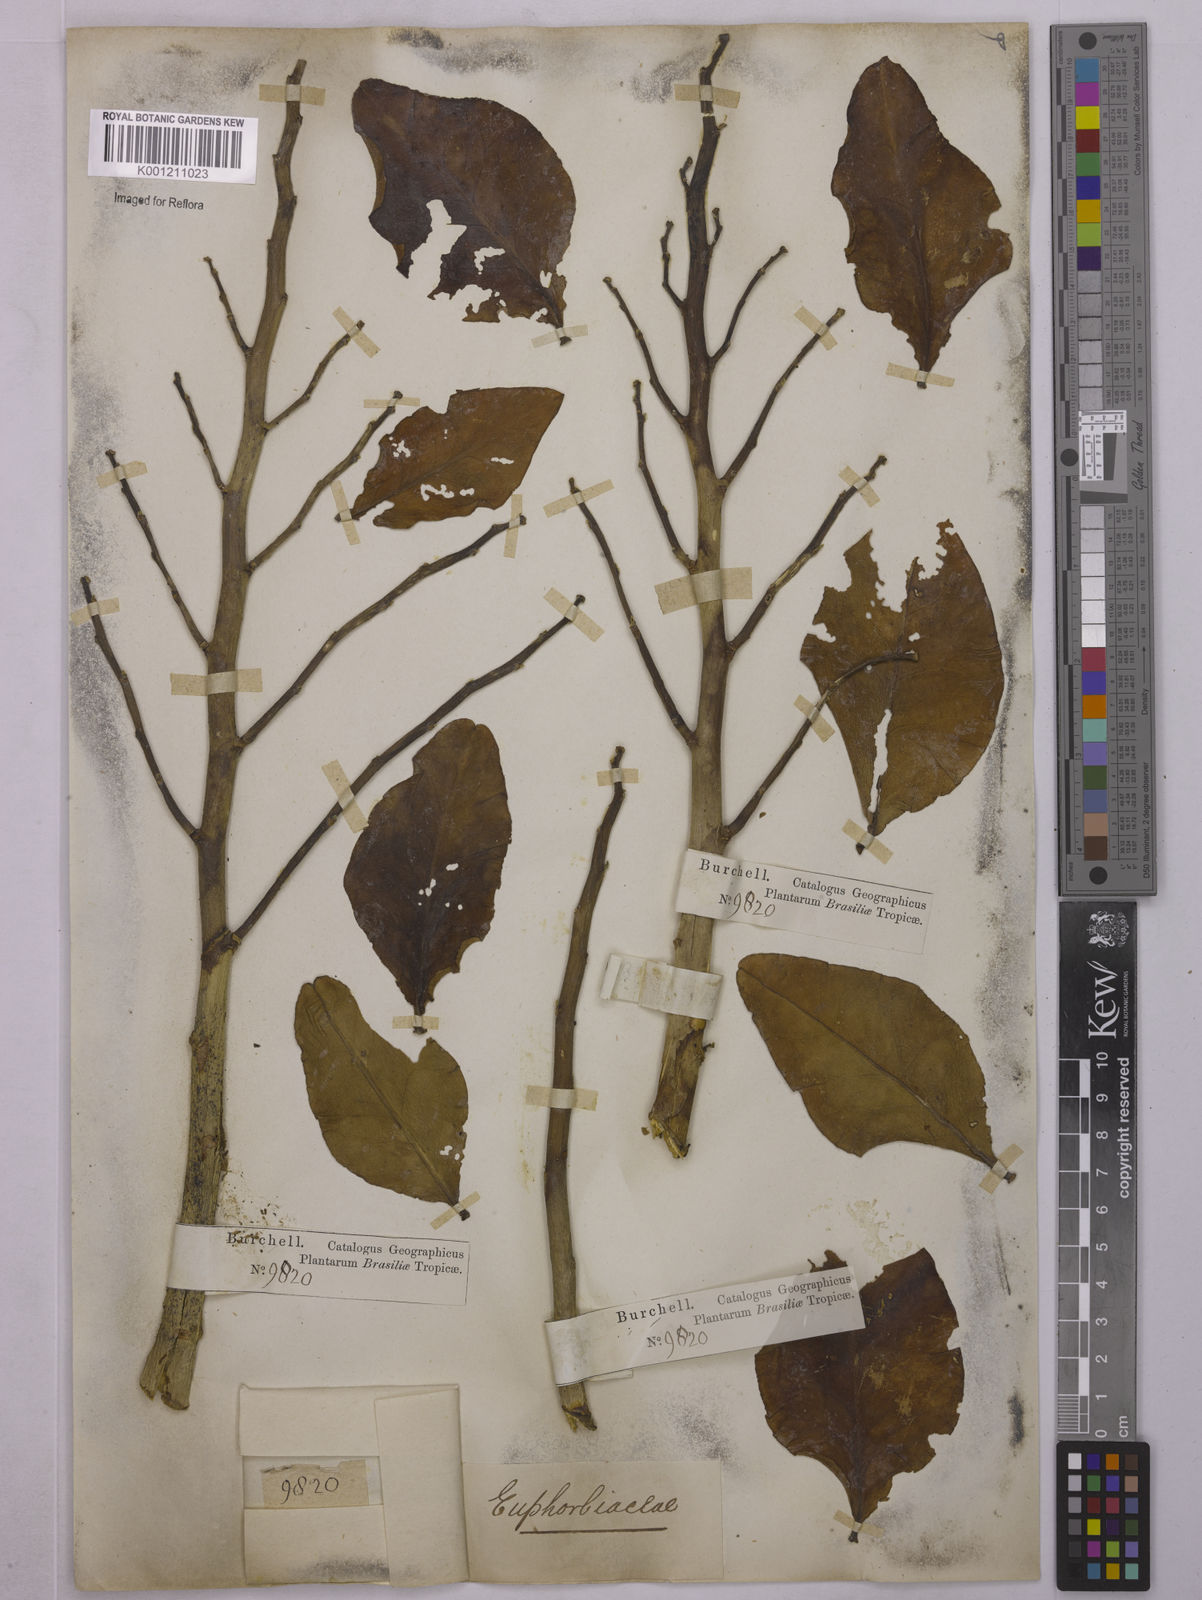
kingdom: Plantae
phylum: Tracheophyta
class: Magnoliopsida
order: Malpighiales
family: Euphorbiaceae
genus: Euphorbia
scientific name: Euphorbia tithymaloides
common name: Slipperplant
